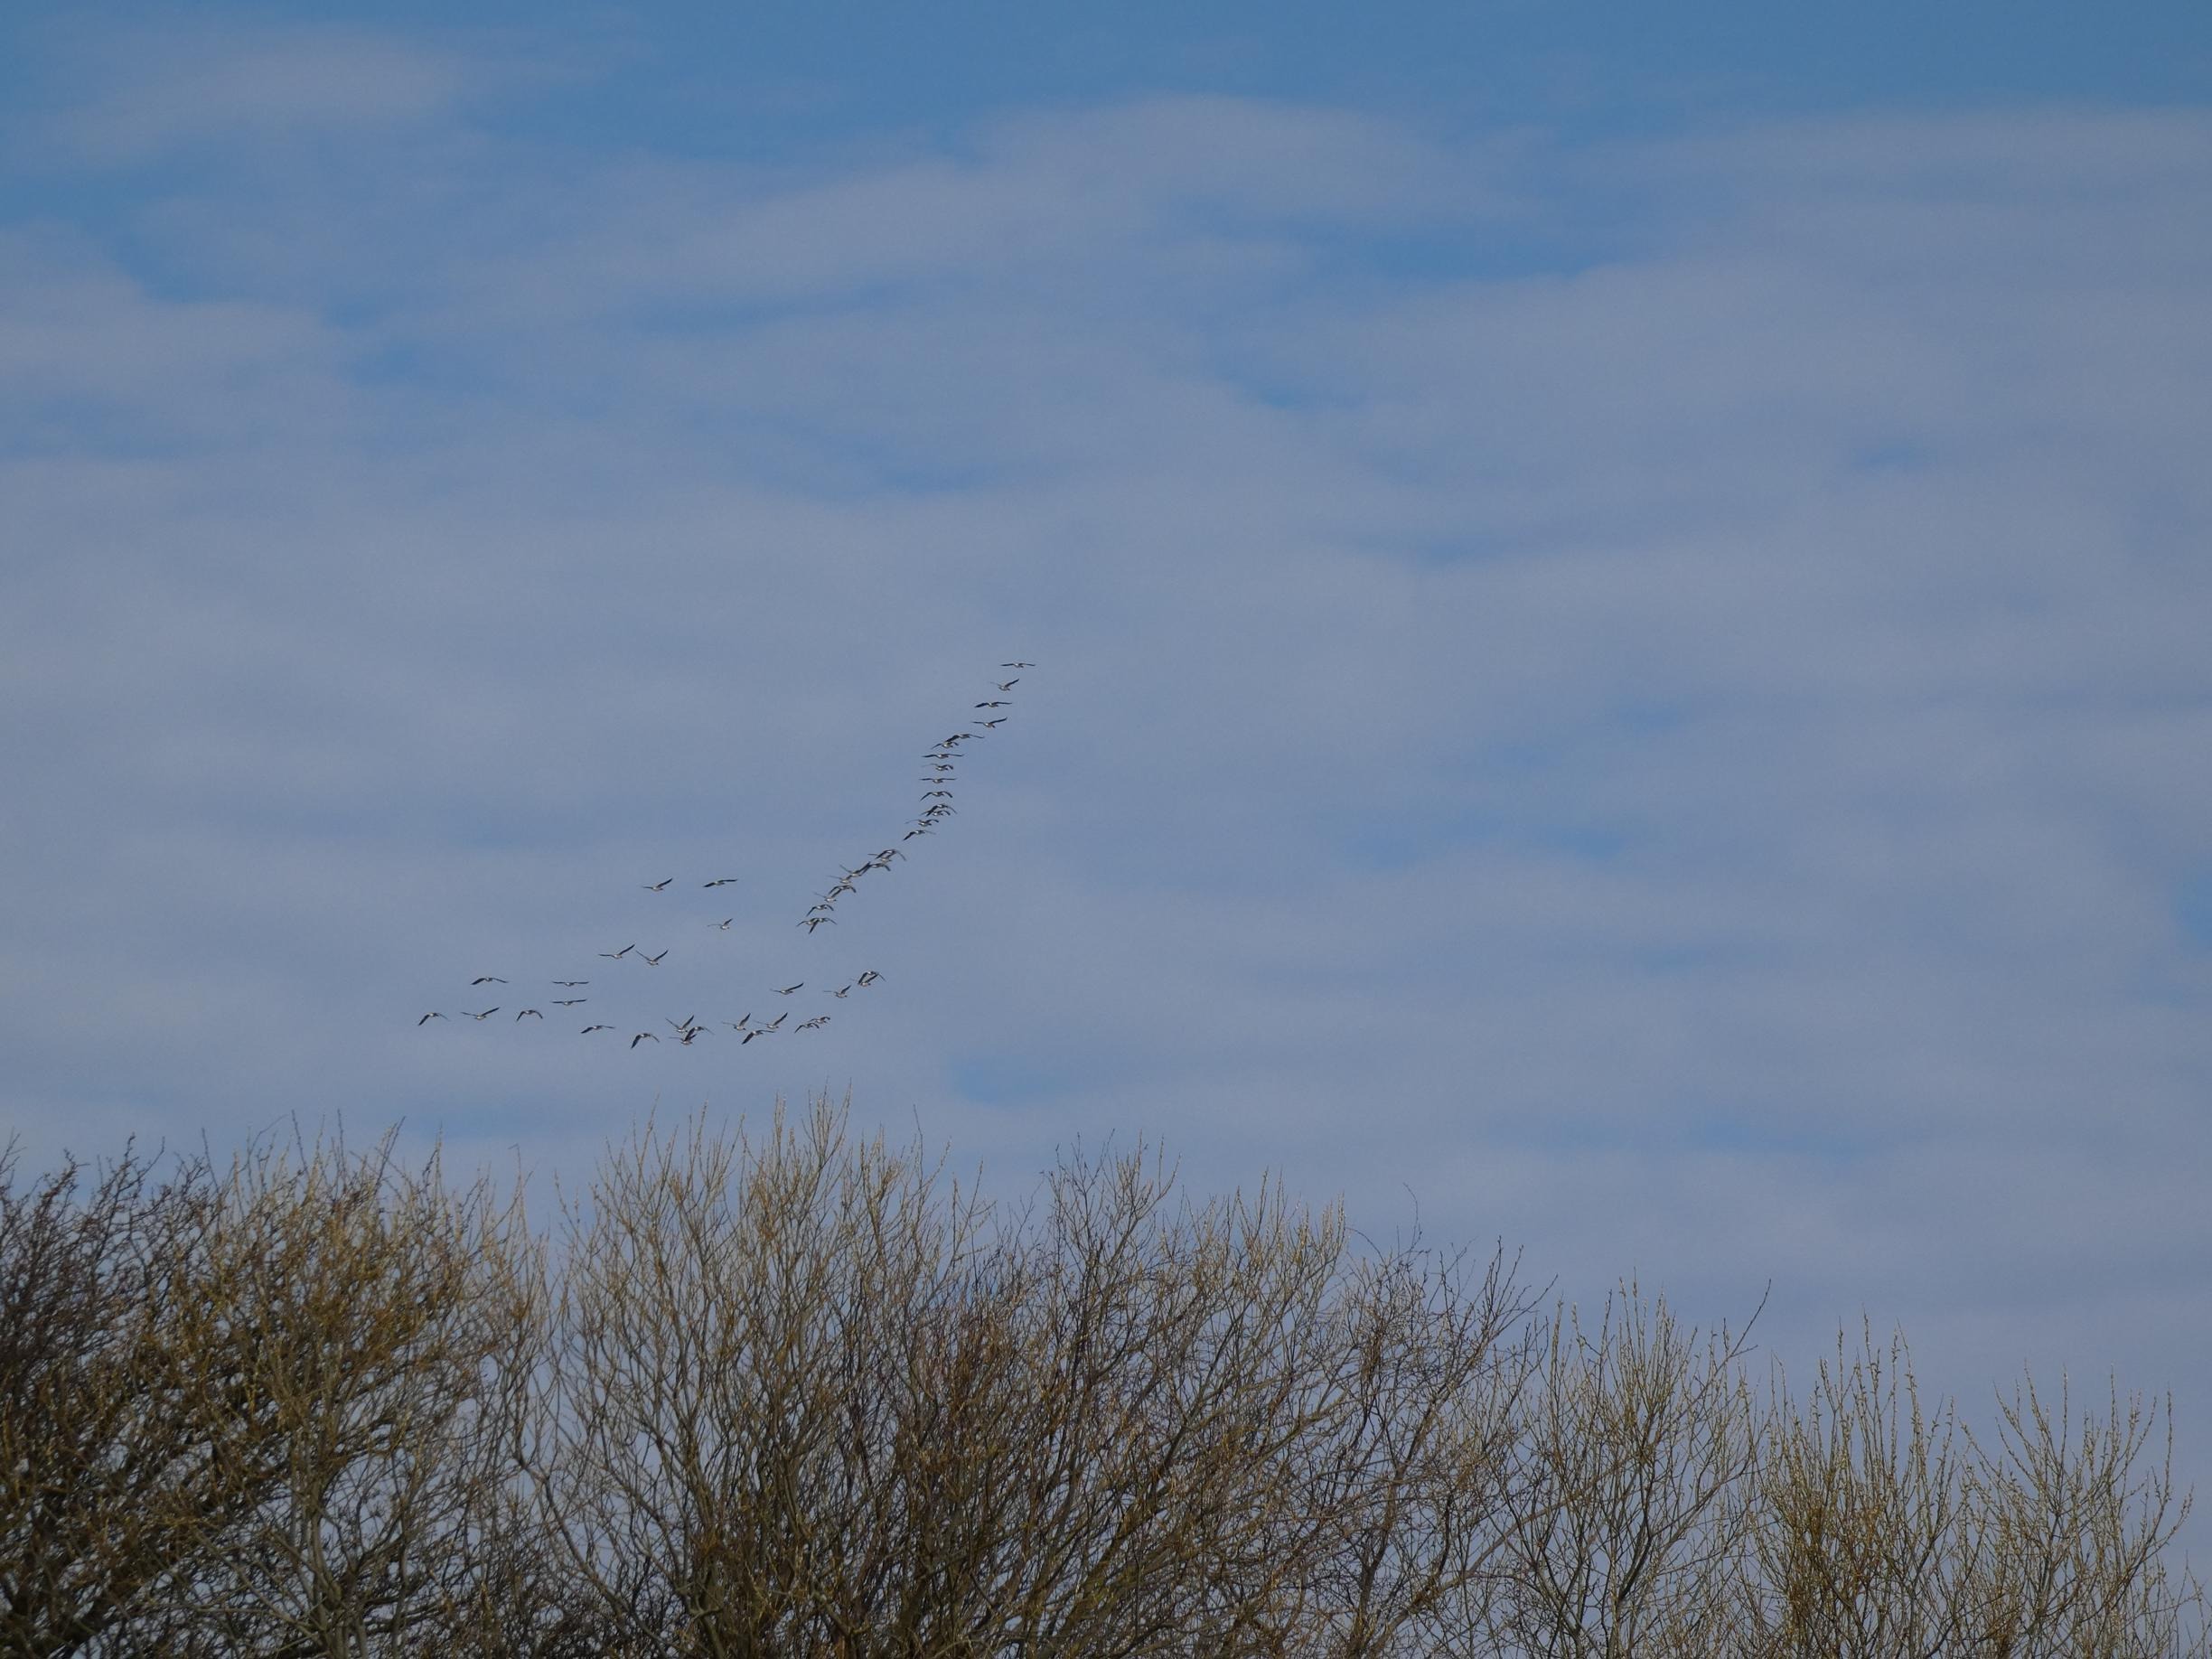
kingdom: Animalia
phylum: Chordata
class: Aves
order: Anseriformes
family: Anatidae
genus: Branta
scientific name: Branta leucopsis
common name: Bramgås
